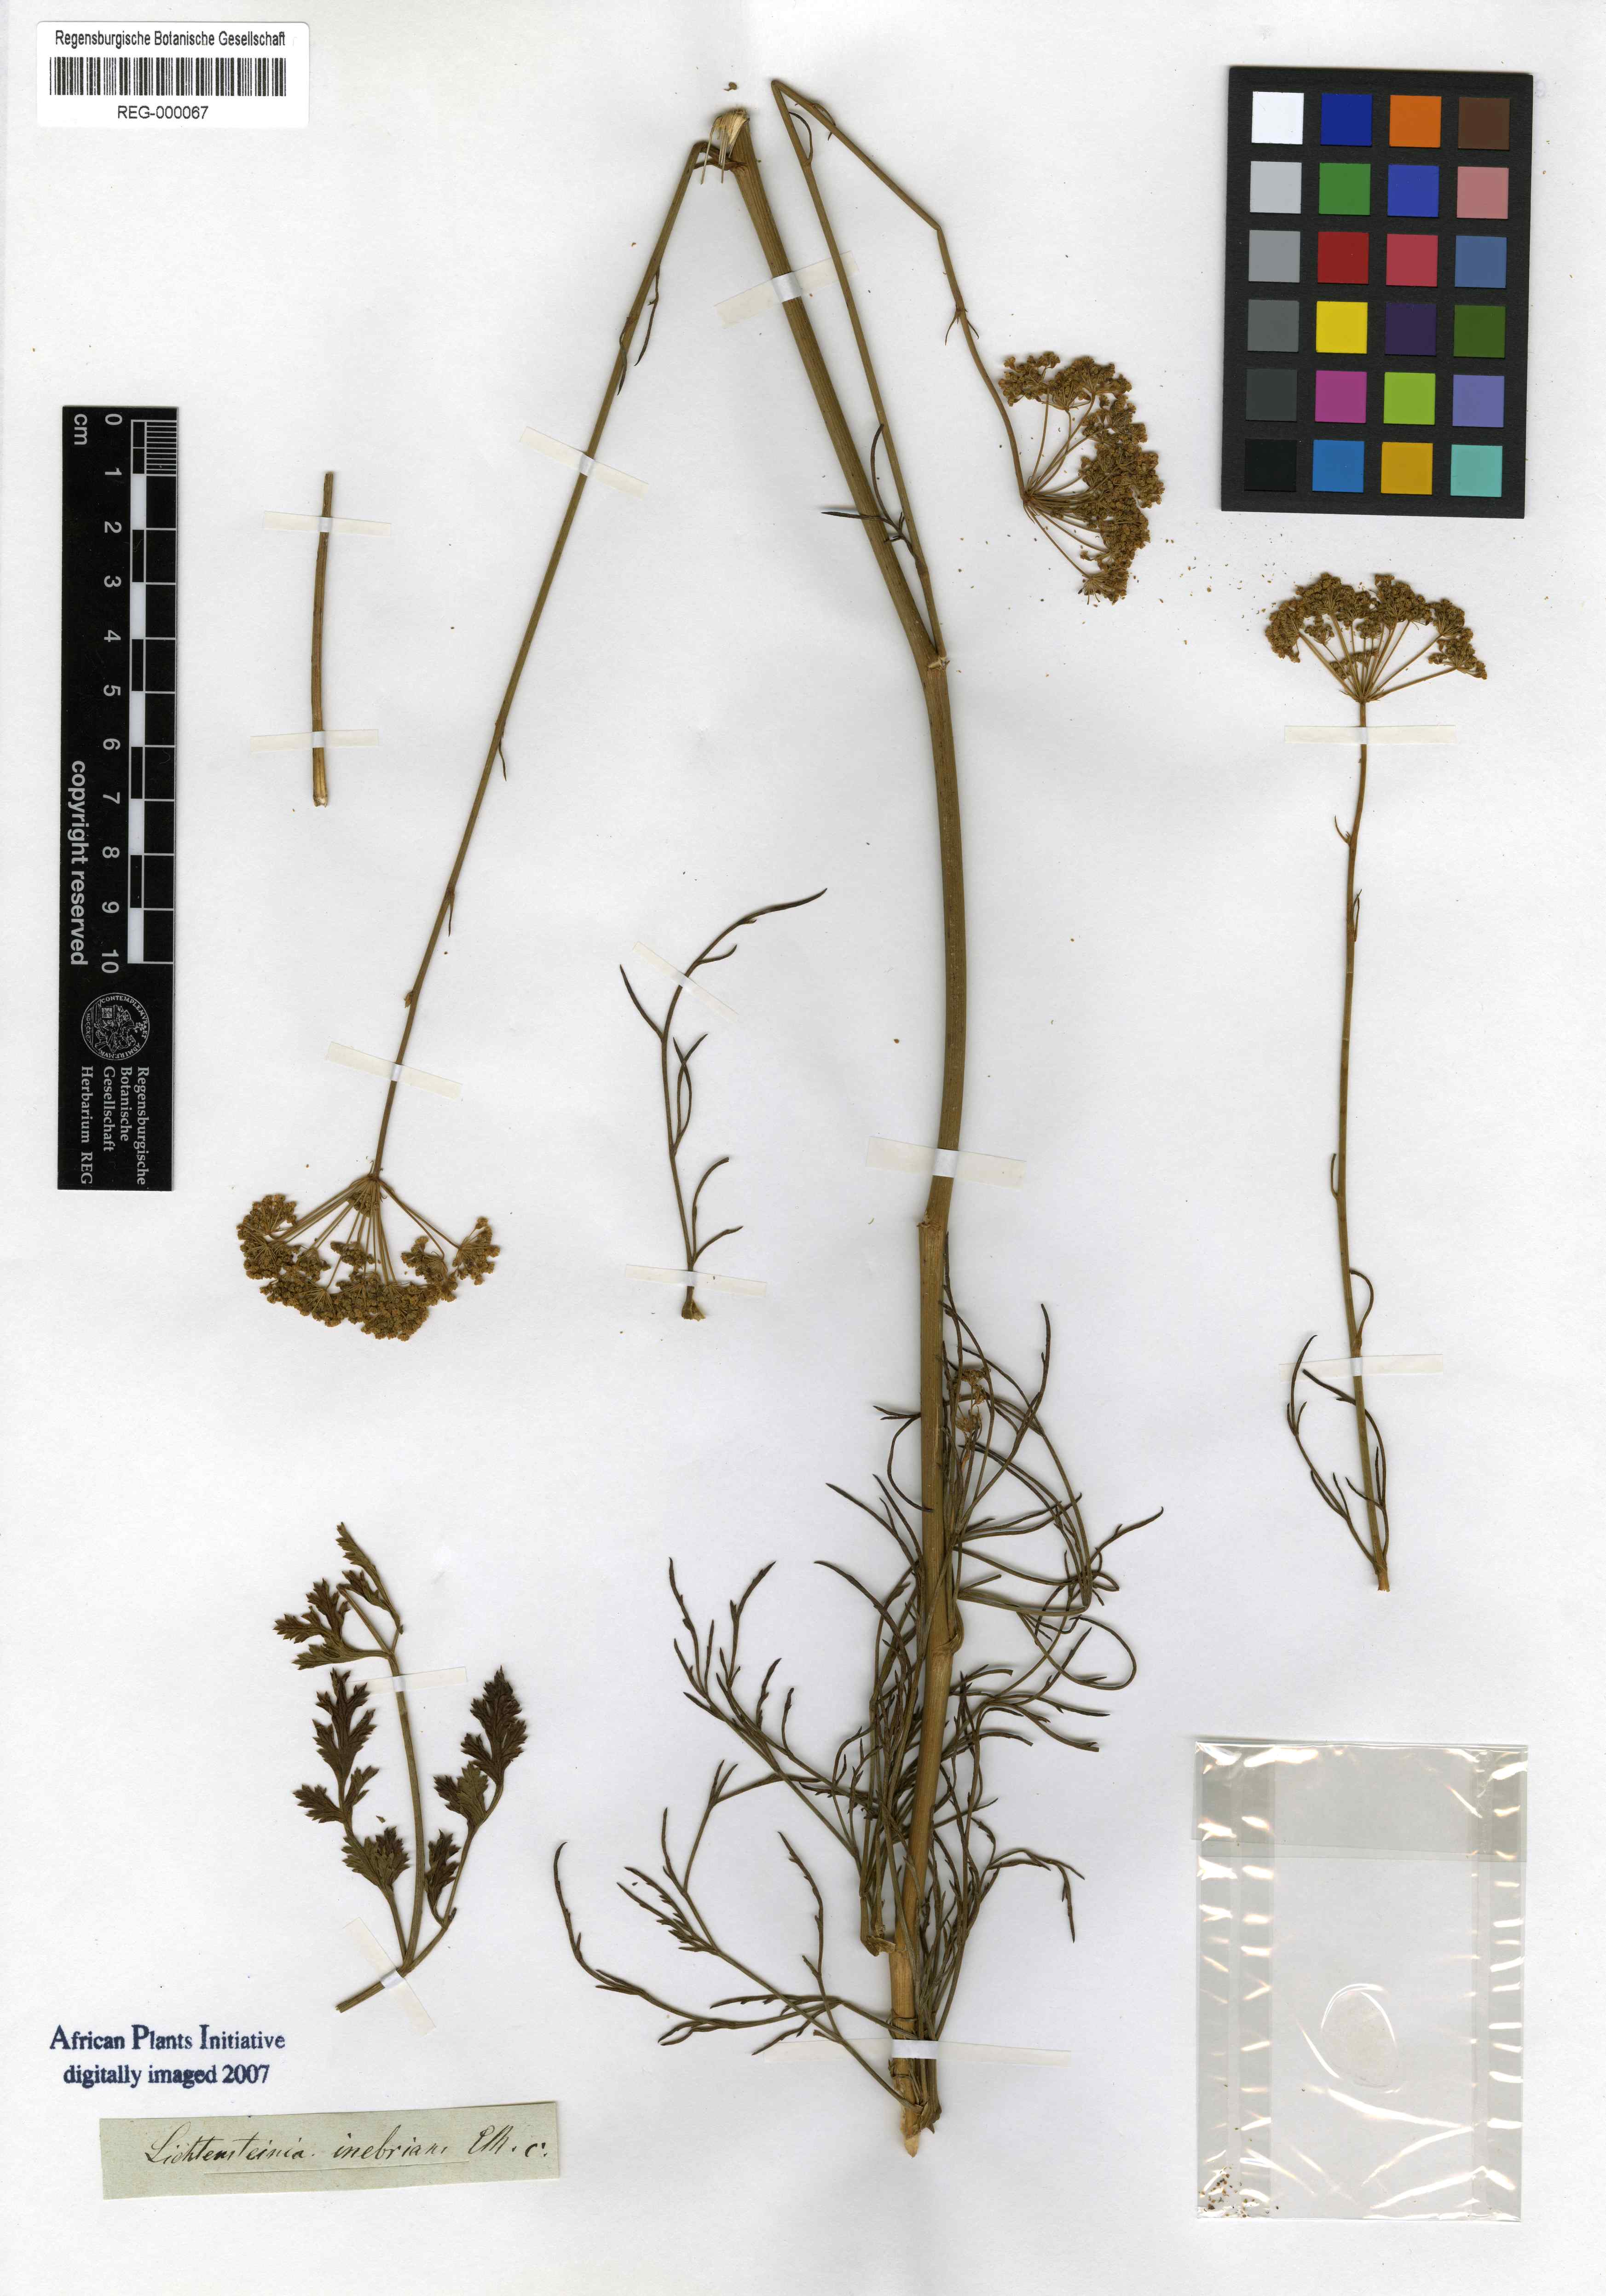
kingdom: Plantae
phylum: Tracheophyta
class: Magnoliopsida
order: Apiales
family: Apiaceae
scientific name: Apiaceae
